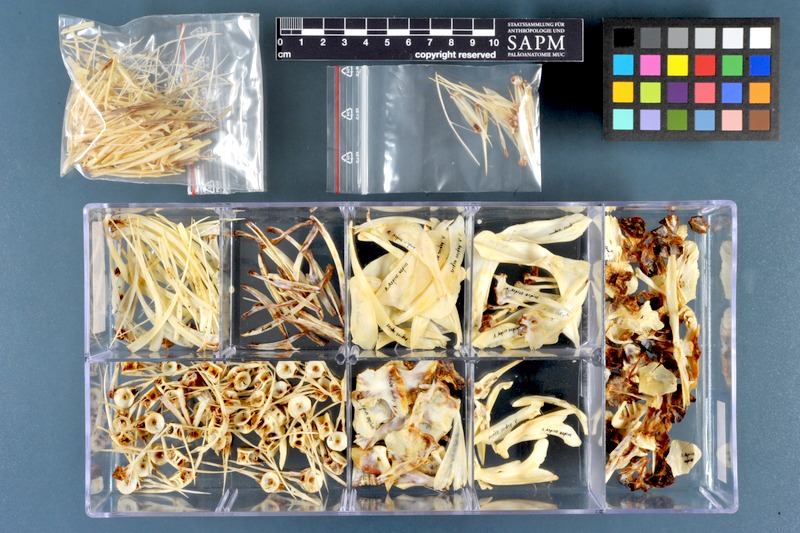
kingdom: Animalia
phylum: Chordata
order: Cypriniformes
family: Cyprinidae
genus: Leuciscus
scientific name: Leuciscus aspius
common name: Asp
